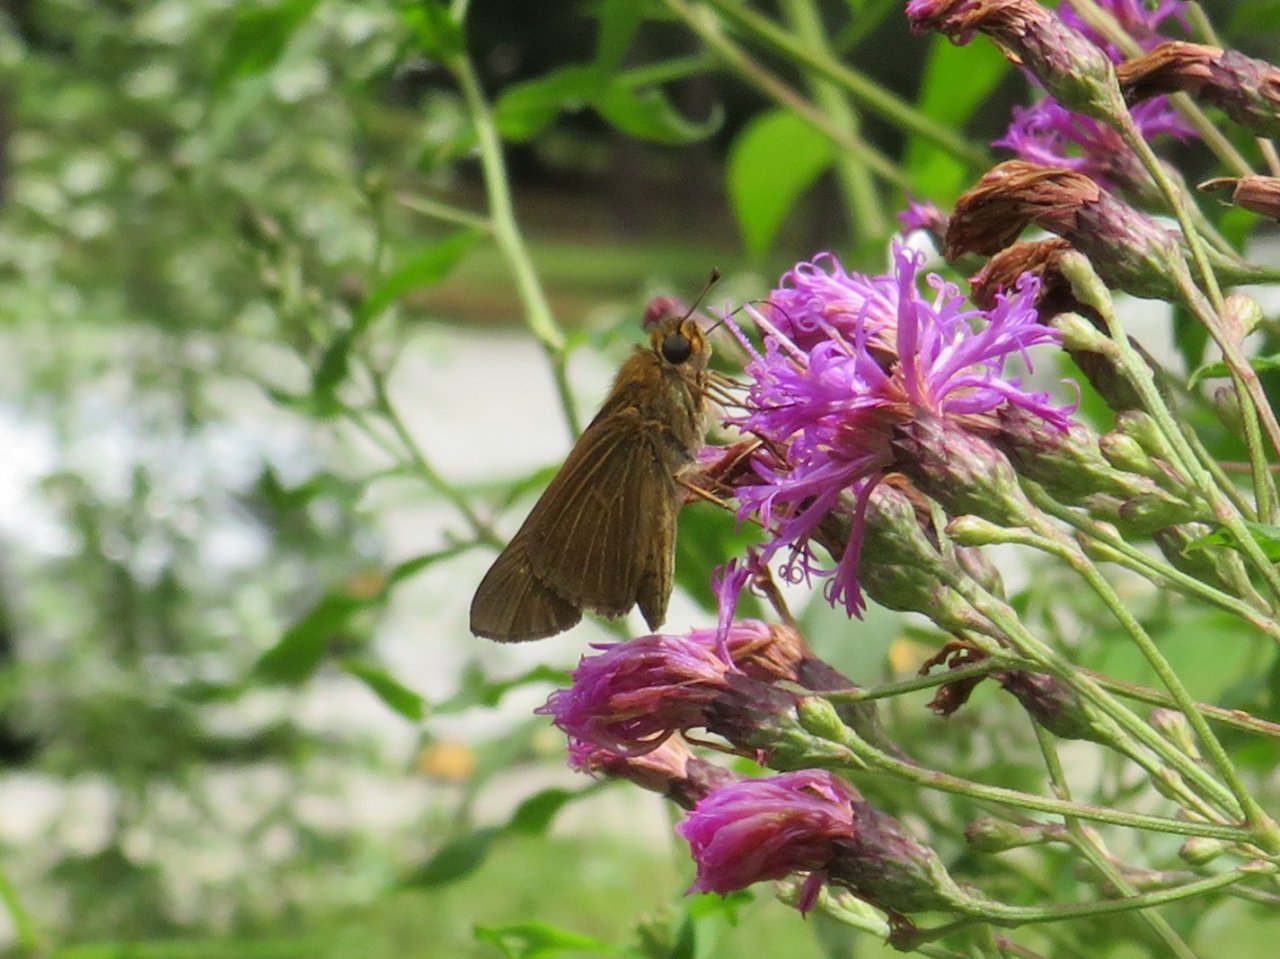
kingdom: Animalia
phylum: Arthropoda
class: Insecta
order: Lepidoptera
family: Hesperiidae
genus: Panoquina
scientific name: Panoquina ocola
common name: Ocola Skipper
